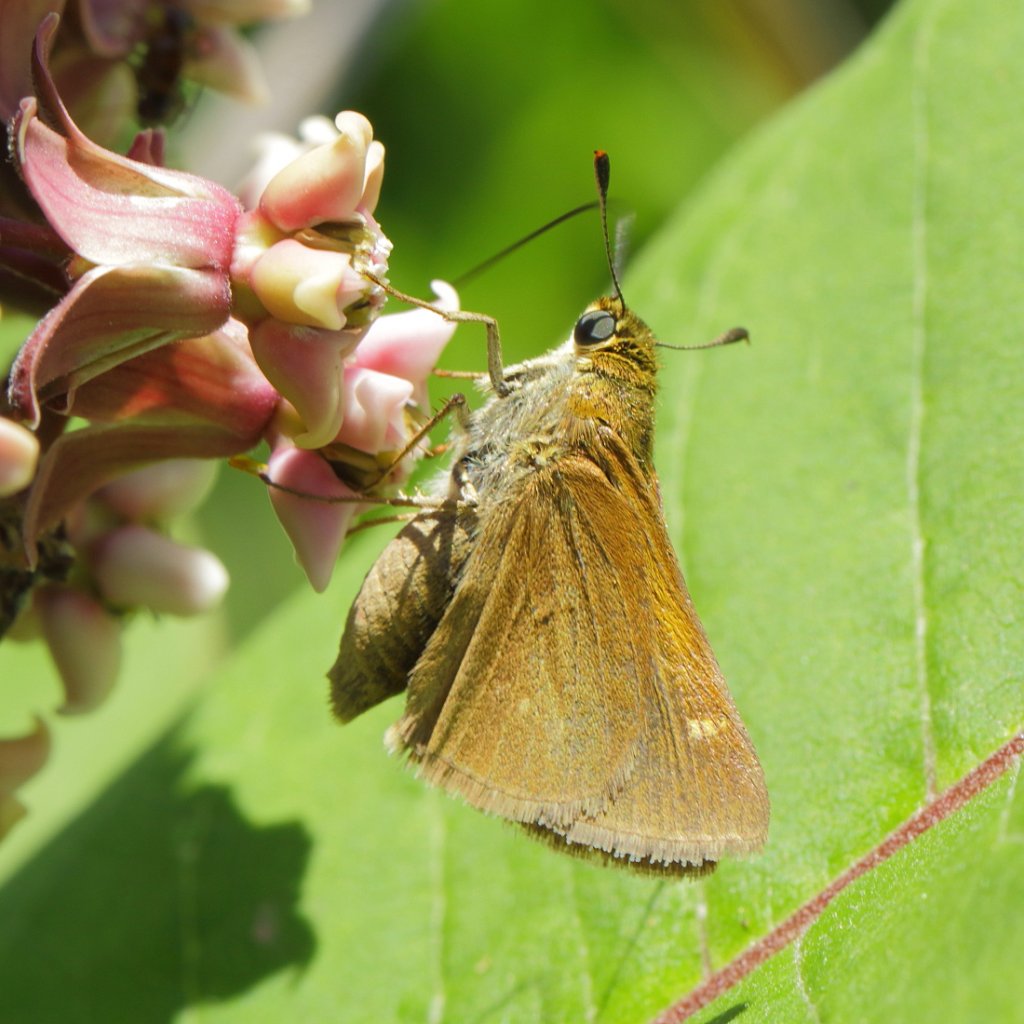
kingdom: Animalia
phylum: Arthropoda
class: Insecta
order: Lepidoptera
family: Hesperiidae
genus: Polites
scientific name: Polites
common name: Crossline Skipper
